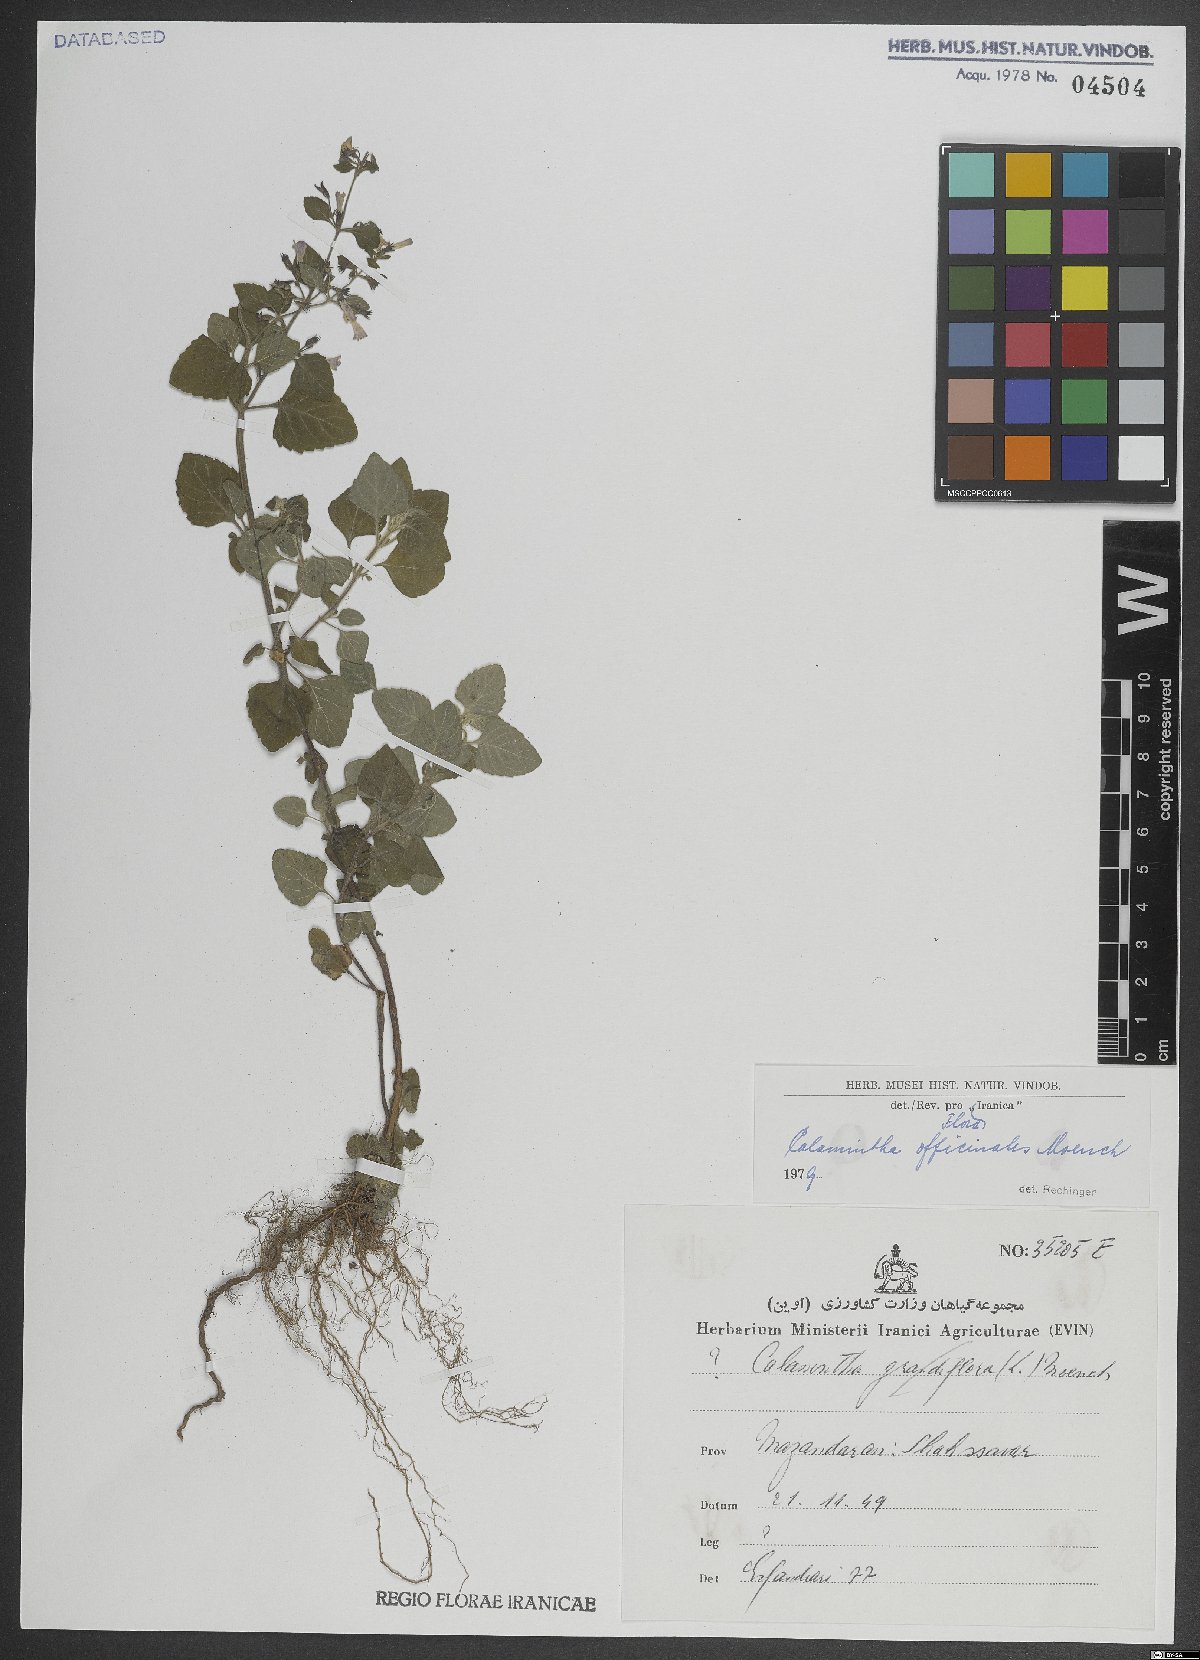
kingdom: Plantae
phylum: Tracheophyta
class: Magnoliopsida
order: Lamiales
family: Lamiaceae
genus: Clinopodium
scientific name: Clinopodium nepeta
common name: Lesser calamint
